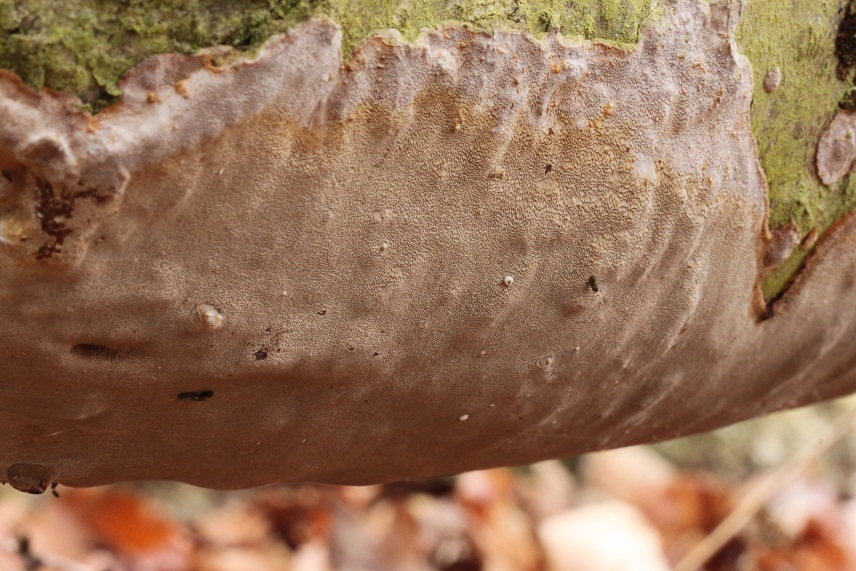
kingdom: Fungi
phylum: Basidiomycota
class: Agaricomycetes
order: Hymenochaetales
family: Hymenochaetaceae
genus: Phellinus
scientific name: Phellinus laevigatus
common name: glat ildporesvamp
